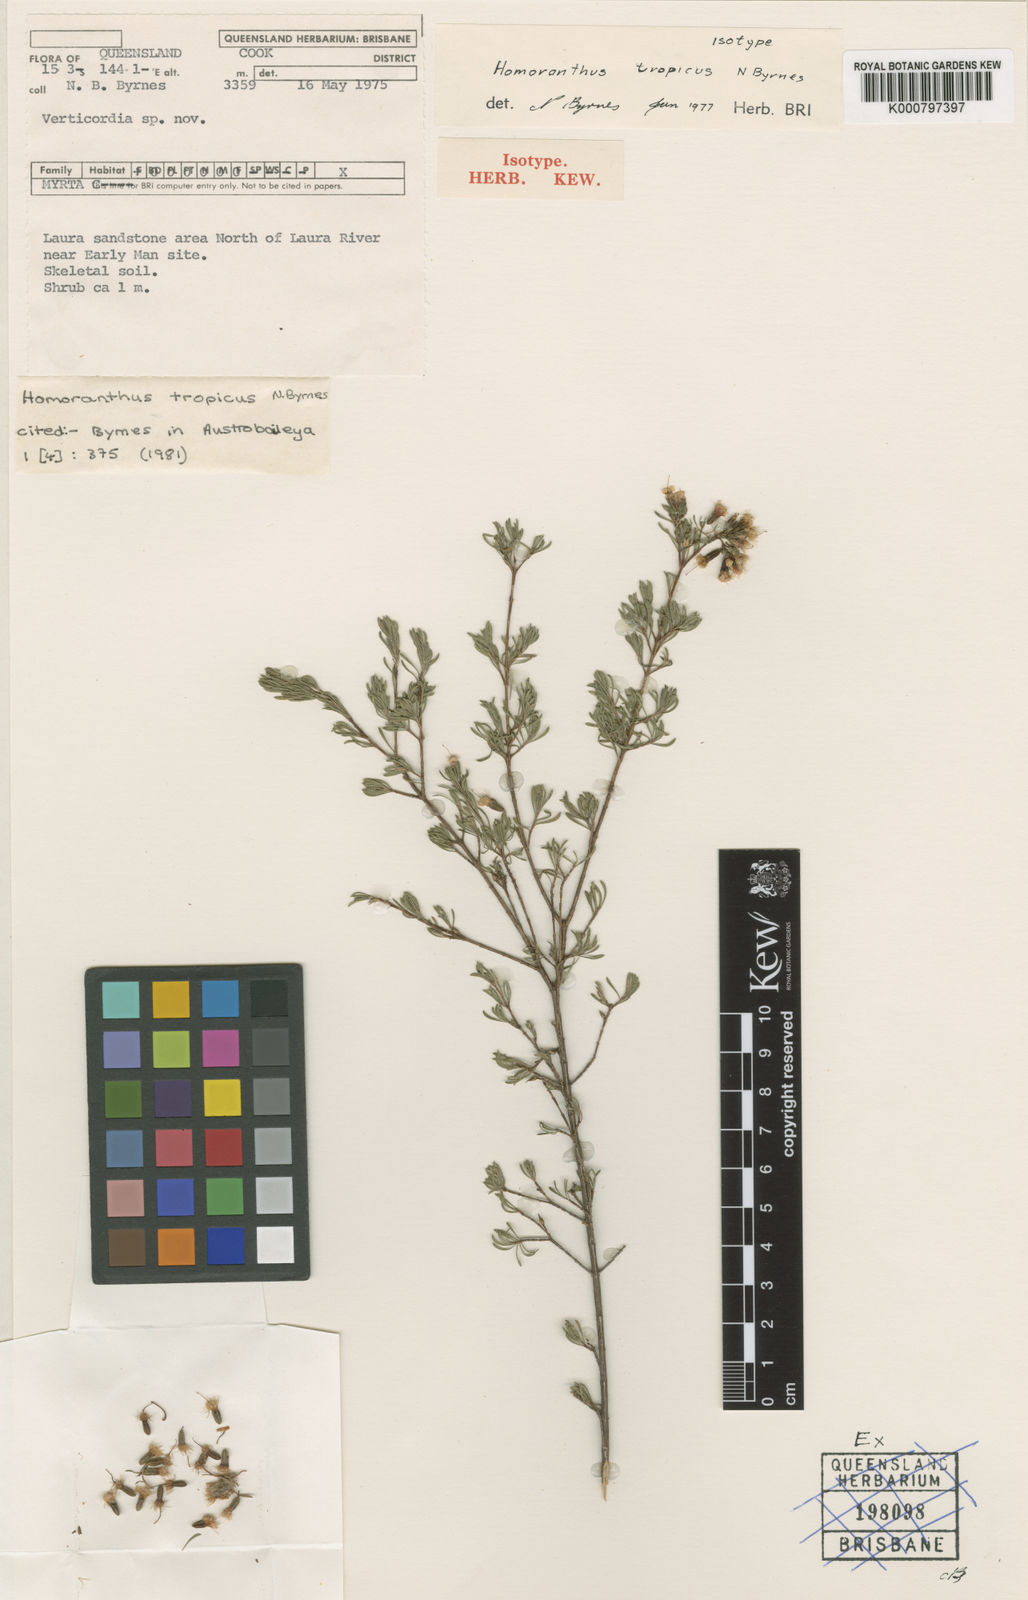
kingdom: Plantae
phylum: Tracheophyta
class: Magnoliopsida
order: Myrtales
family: Myrtaceae
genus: Homoranthus
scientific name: Homoranthus tropicus
